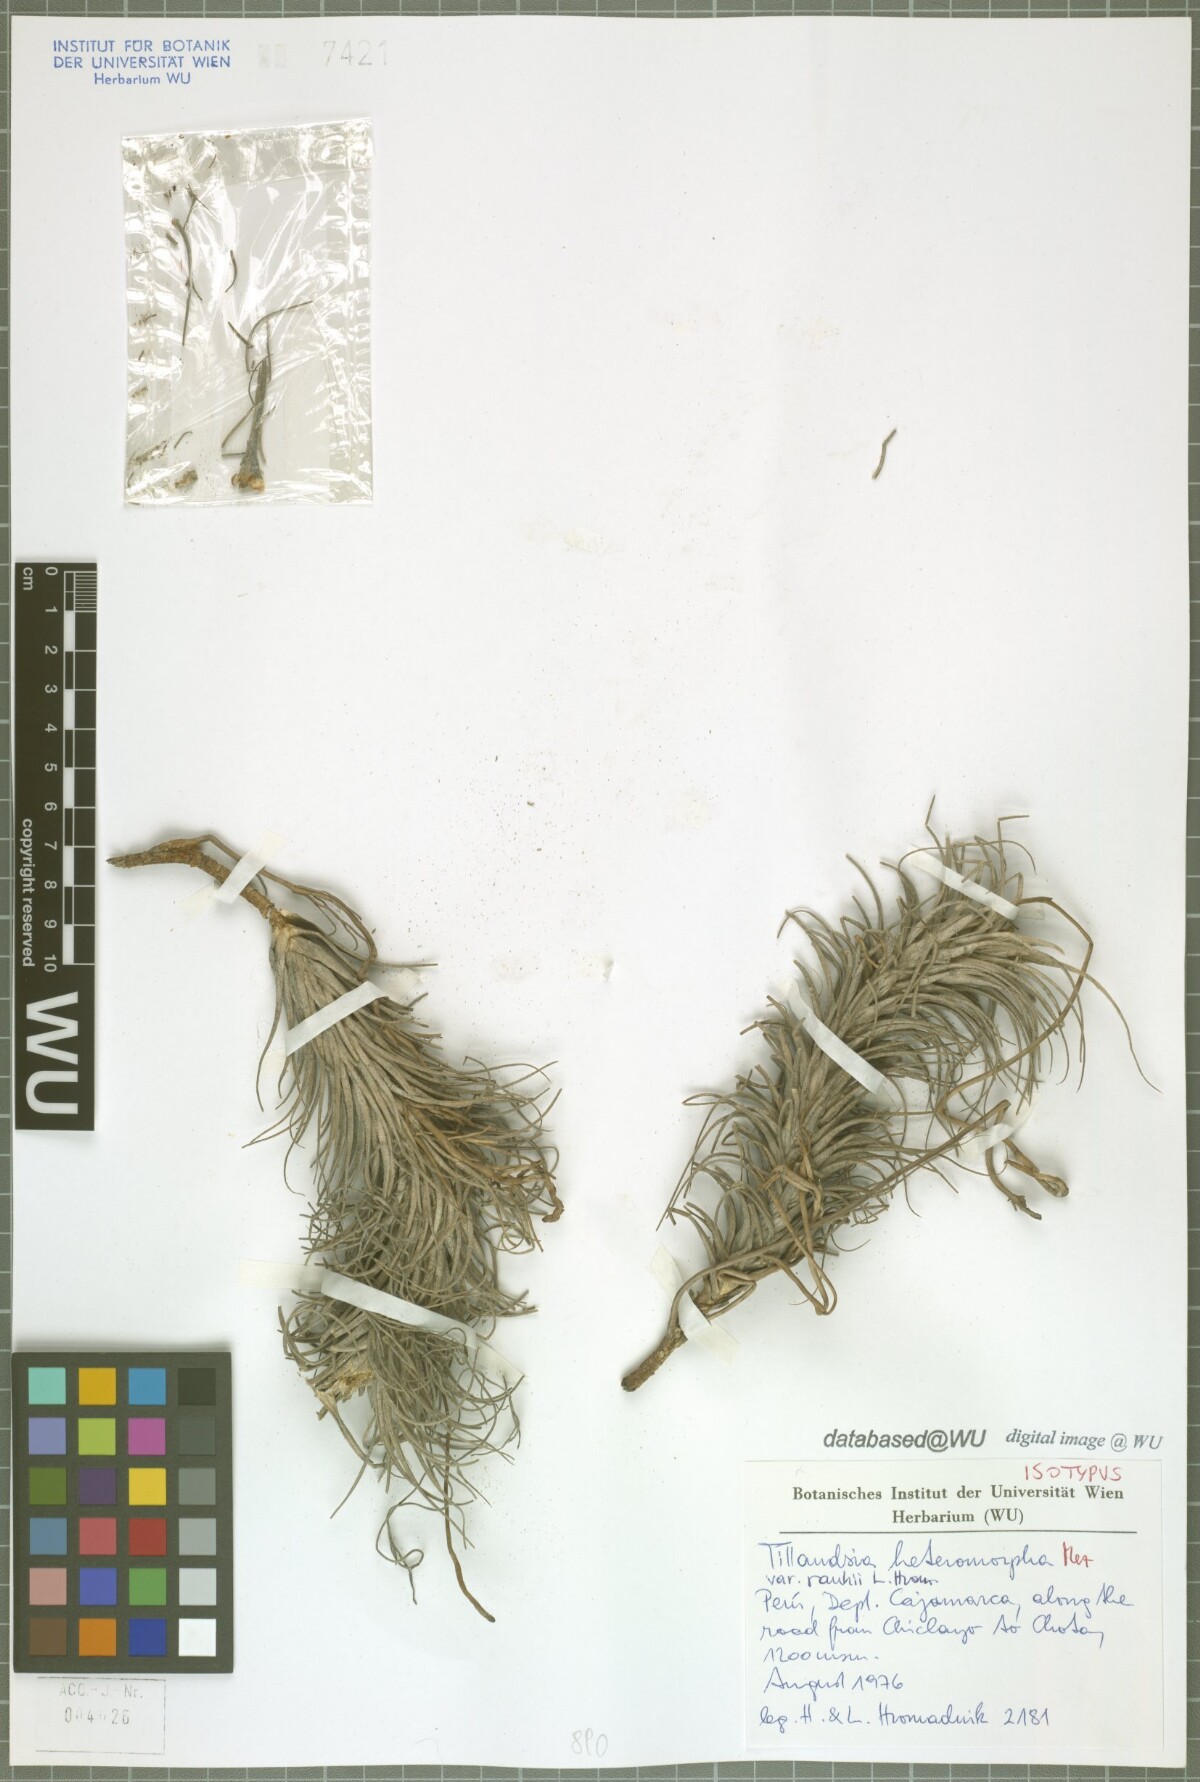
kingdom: Plantae
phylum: Tracheophyta
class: Liliopsida
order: Poales
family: Bromeliaceae
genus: Tillandsia
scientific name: Tillandsia heteromorpha
